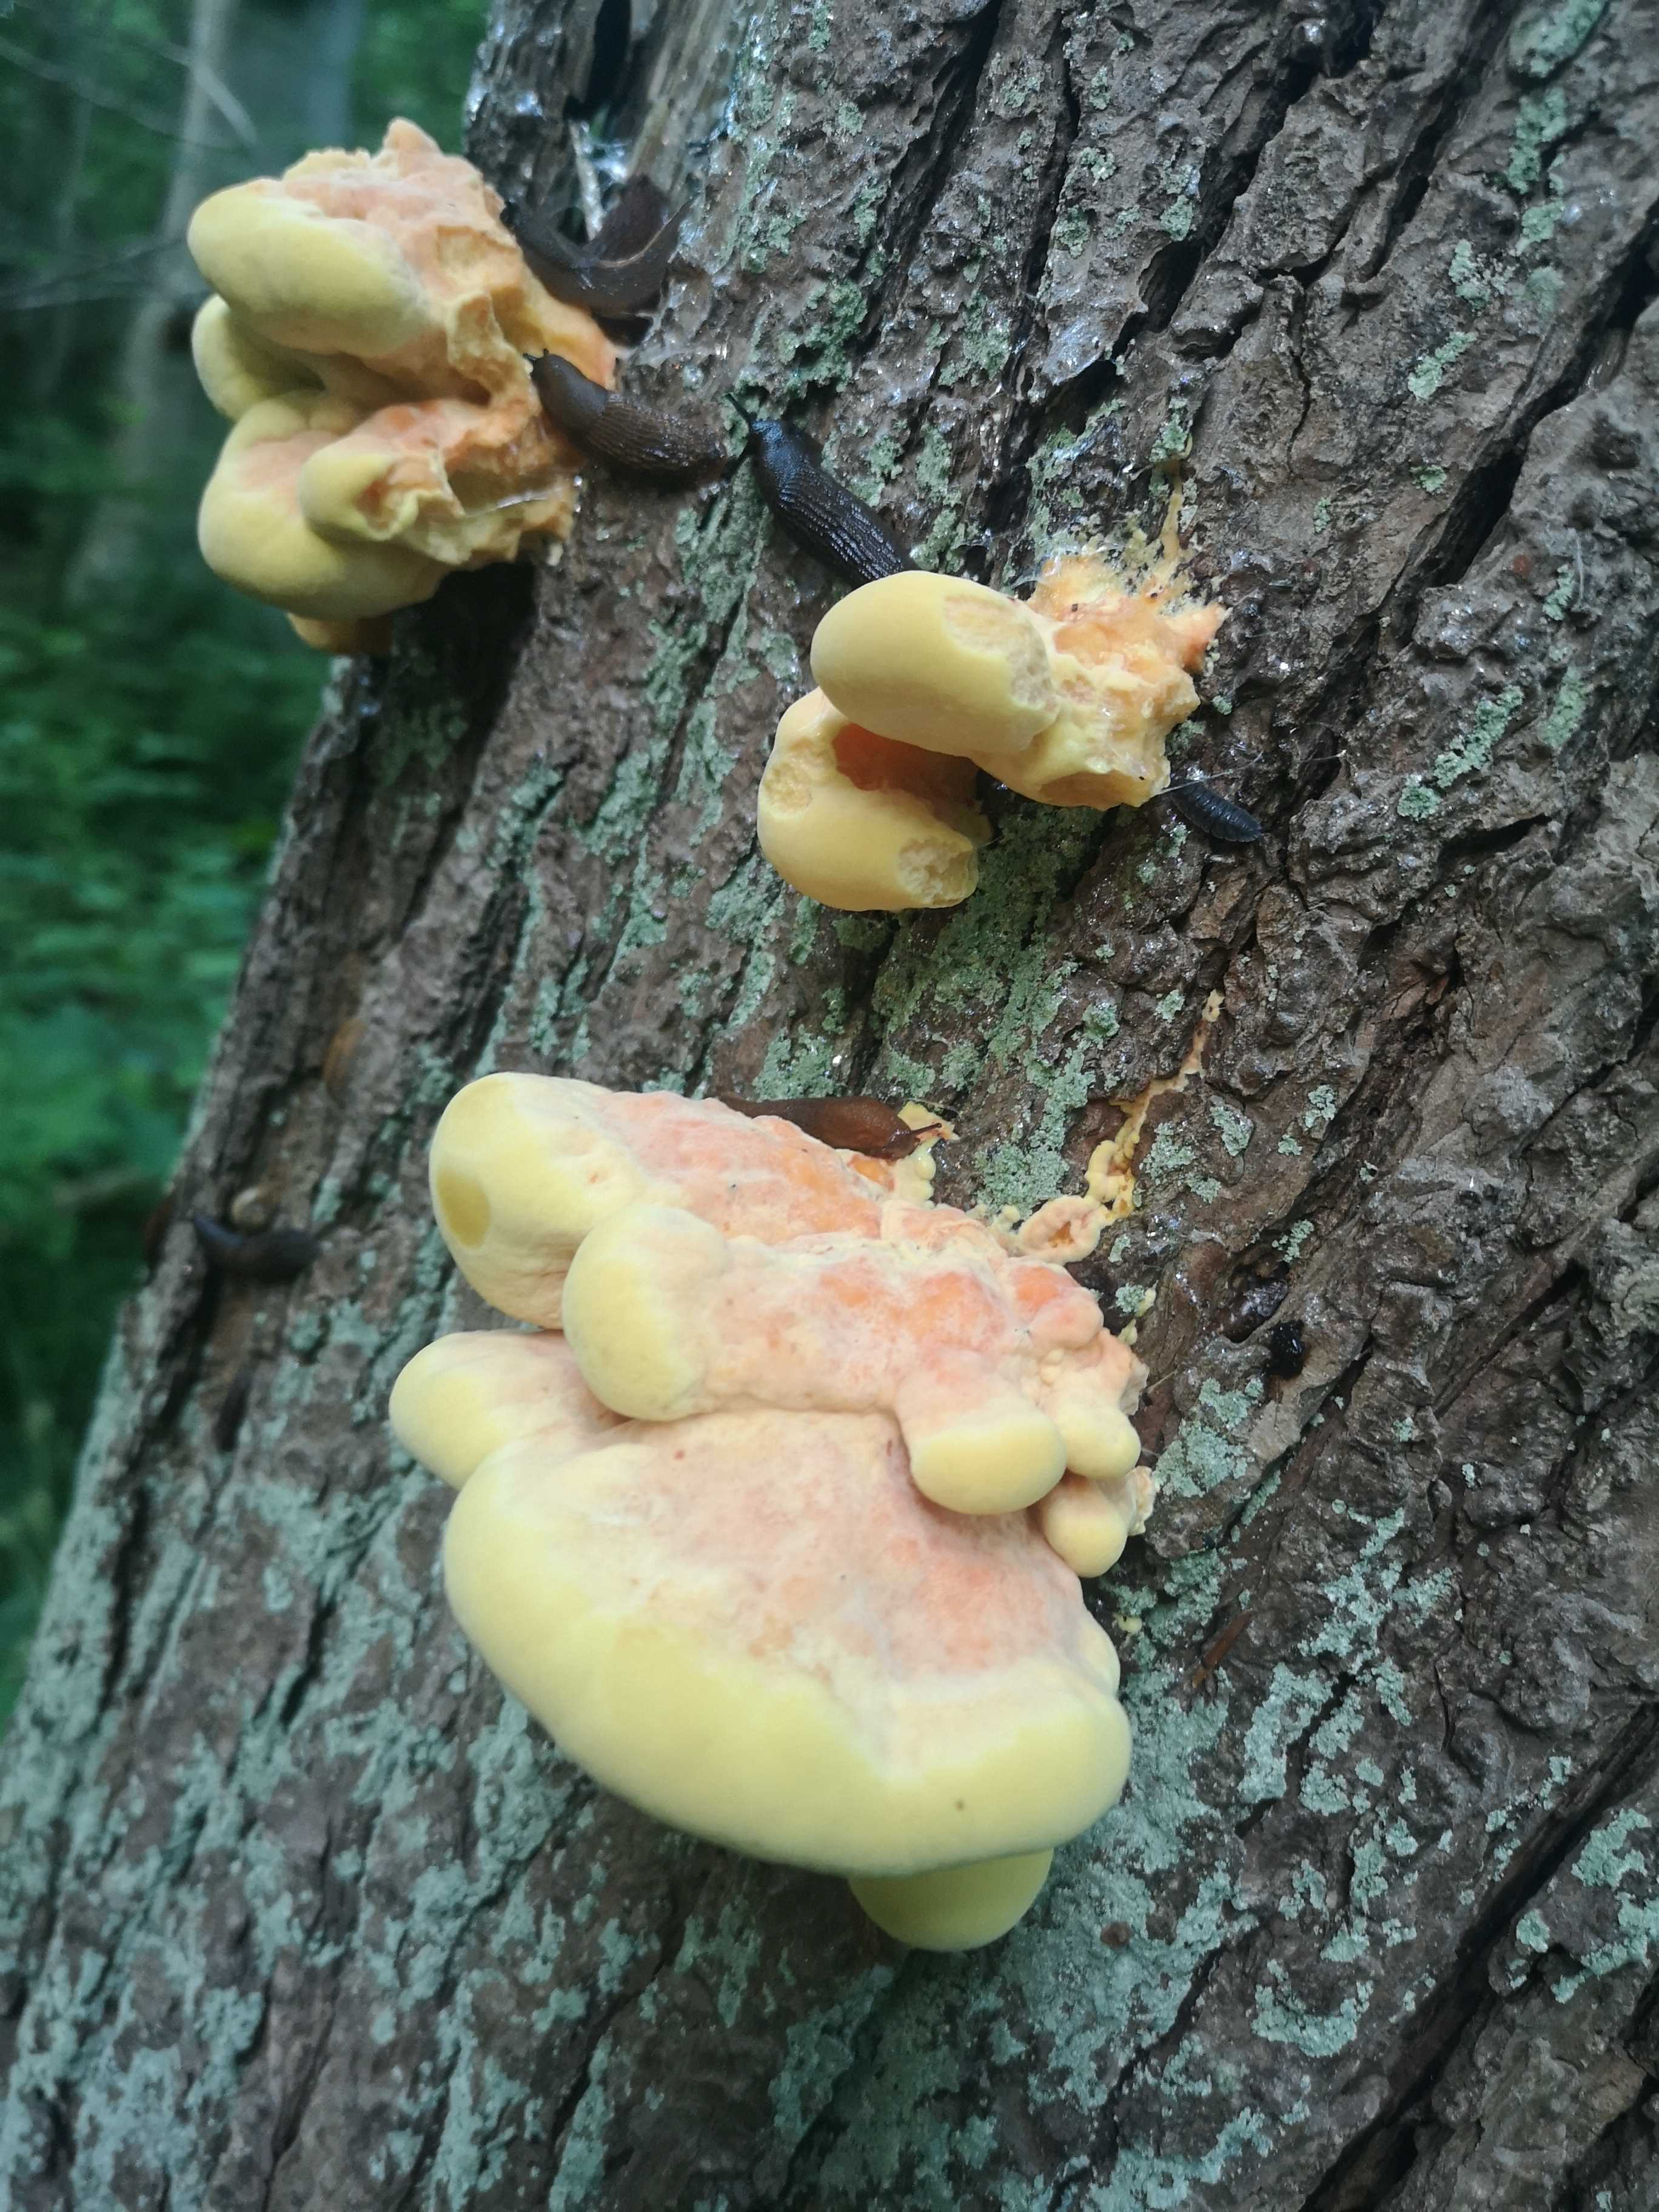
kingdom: Fungi
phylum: Basidiomycota
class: Agaricomycetes
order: Polyporales
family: Laetiporaceae
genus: Laetiporus
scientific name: Laetiporus sulphureus
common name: svovlporesvamp
